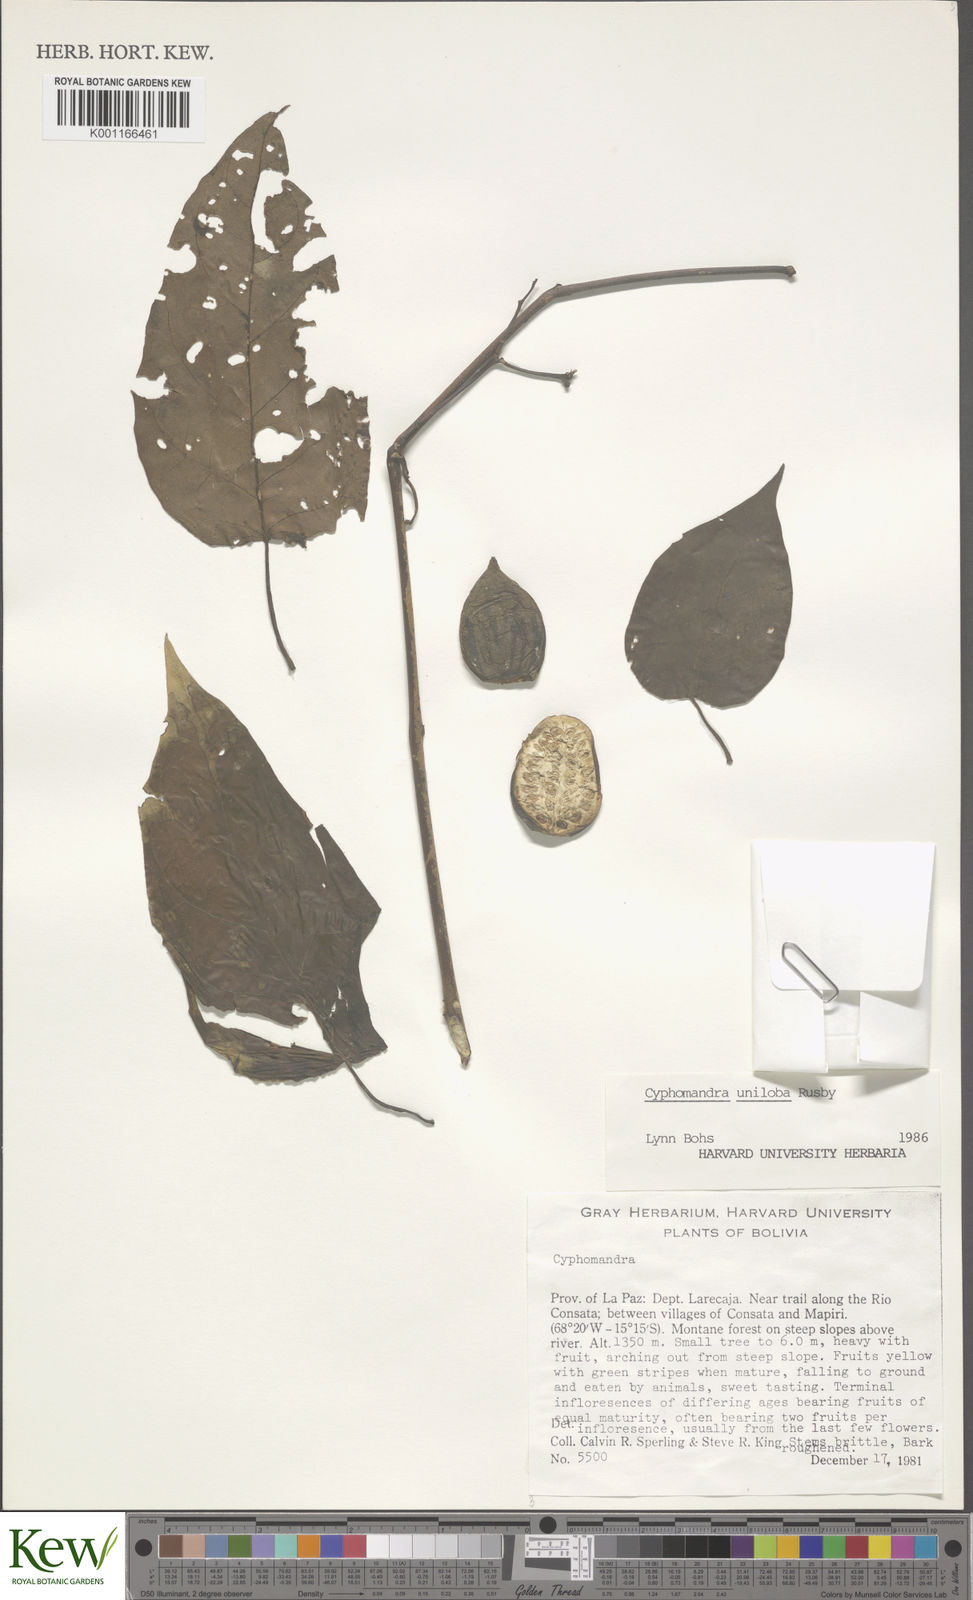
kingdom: Plantae
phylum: Tracheophyta
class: Magnoliopsida
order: Solanales
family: Solanaceae
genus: Solanum
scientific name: Solanum unilobum
